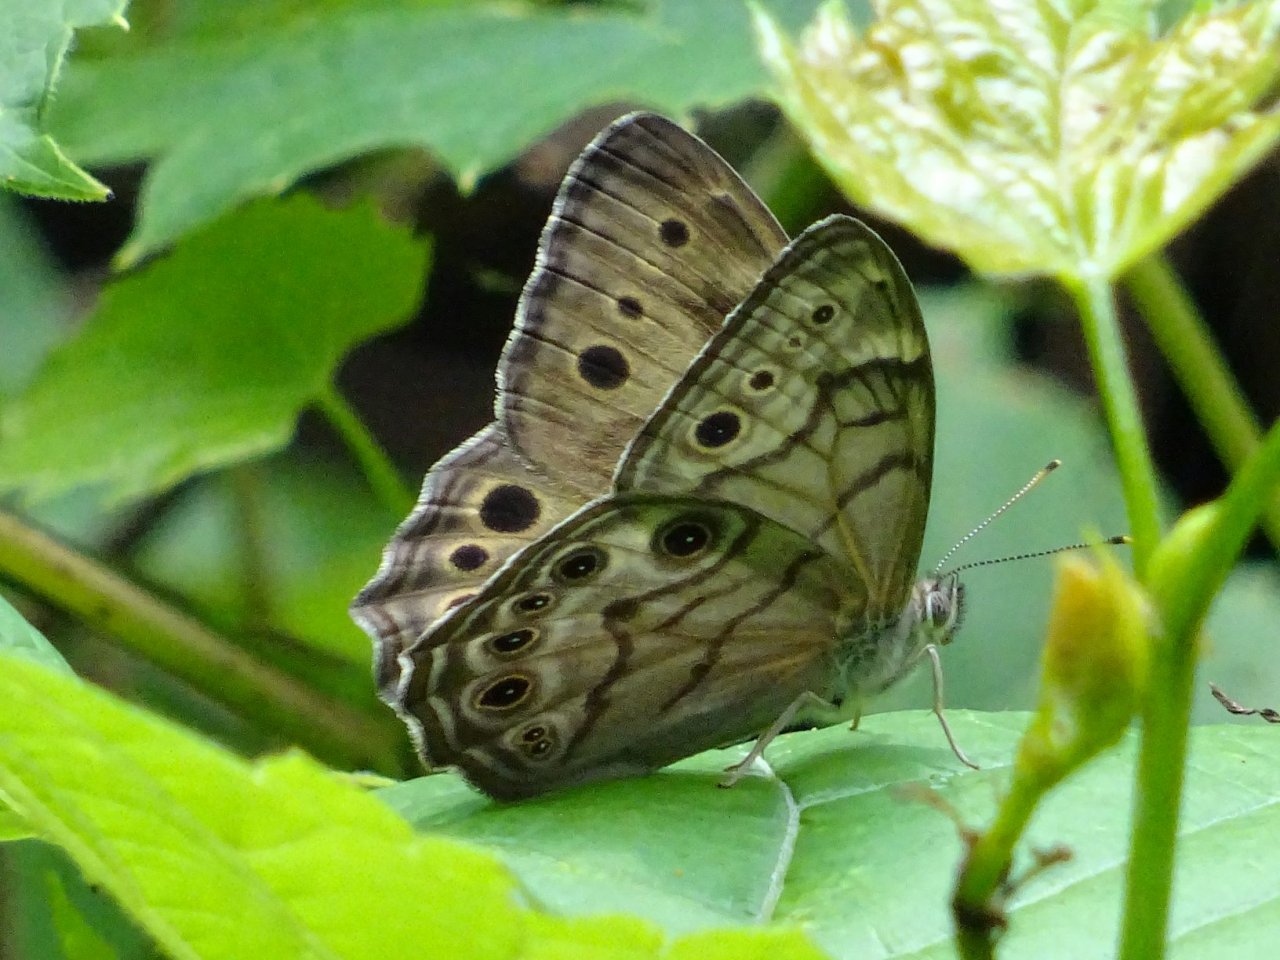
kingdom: Animalia
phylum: Arthropoda
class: Insecta
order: Lepidoptera
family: Nymphalidae
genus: Lethe
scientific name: Lethe anthedon
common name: Northern Pearly-Eye
